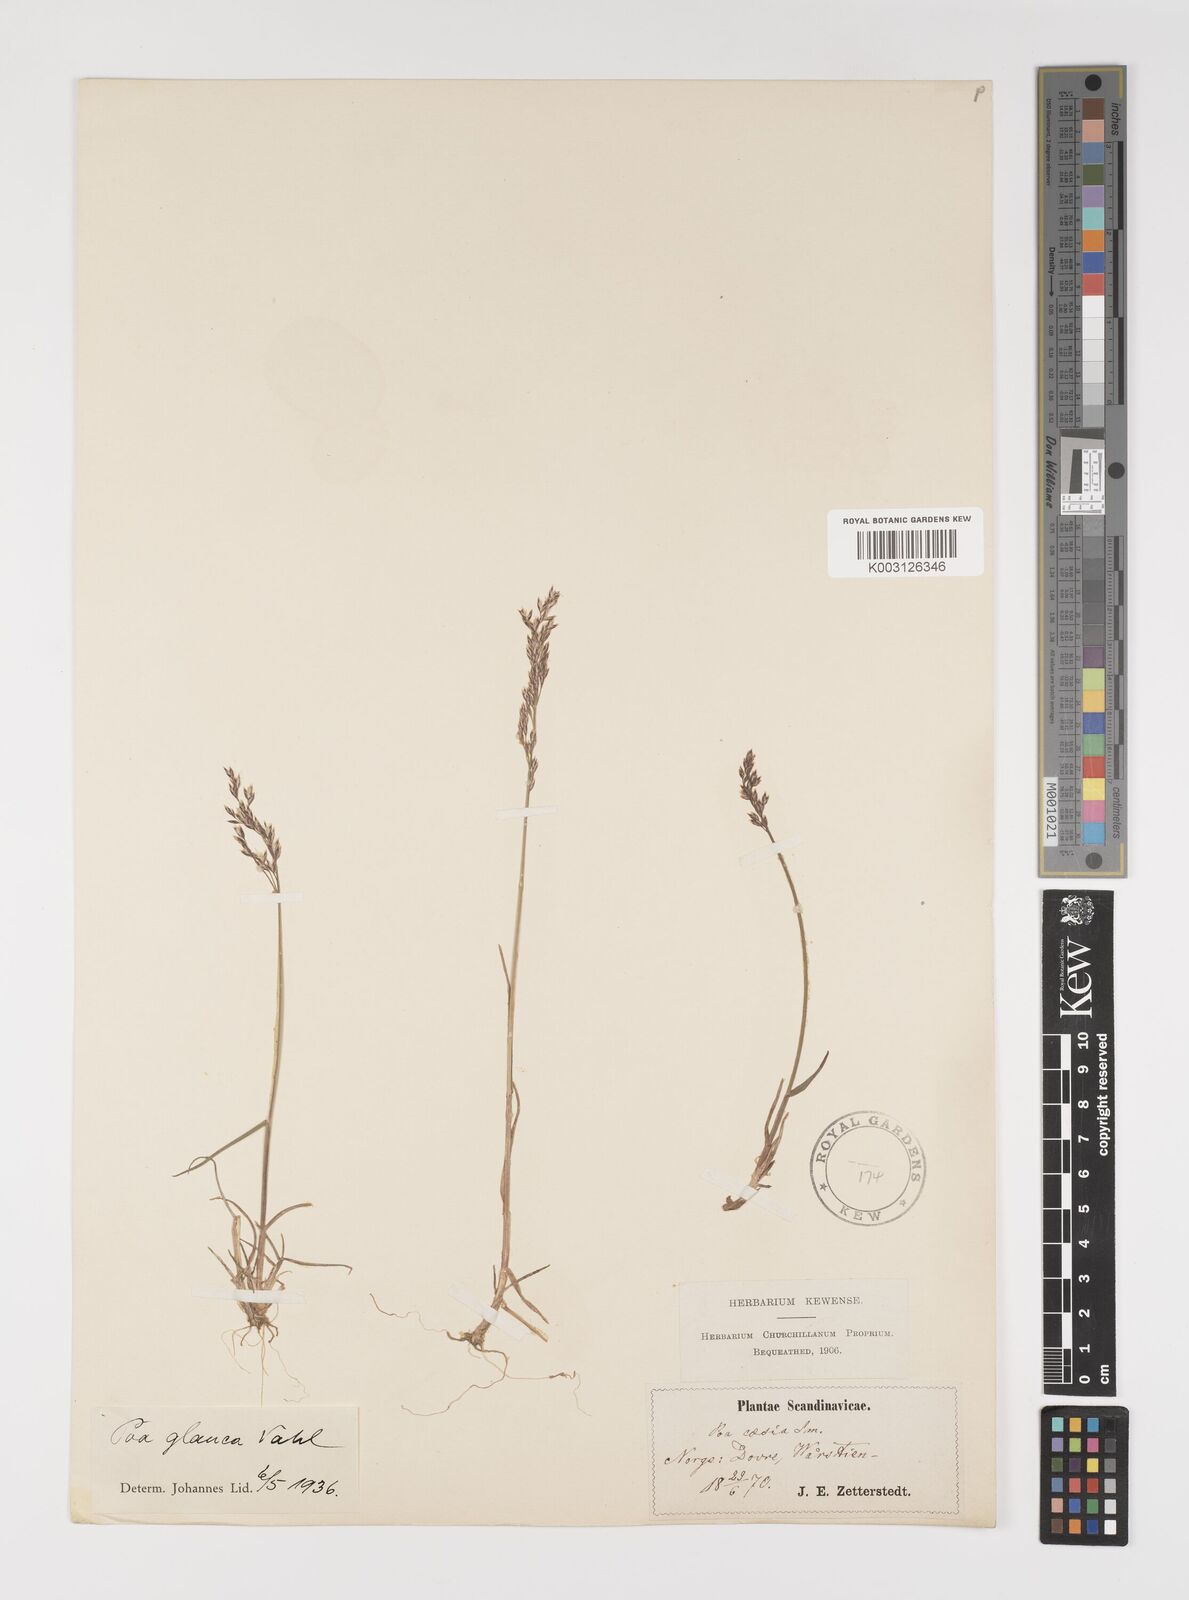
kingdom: Plantae
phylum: Tracheophyta
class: Liliopsida
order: Poales
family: Poaceae
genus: Poa
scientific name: Poa glauca
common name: Glaucous bluegrass
